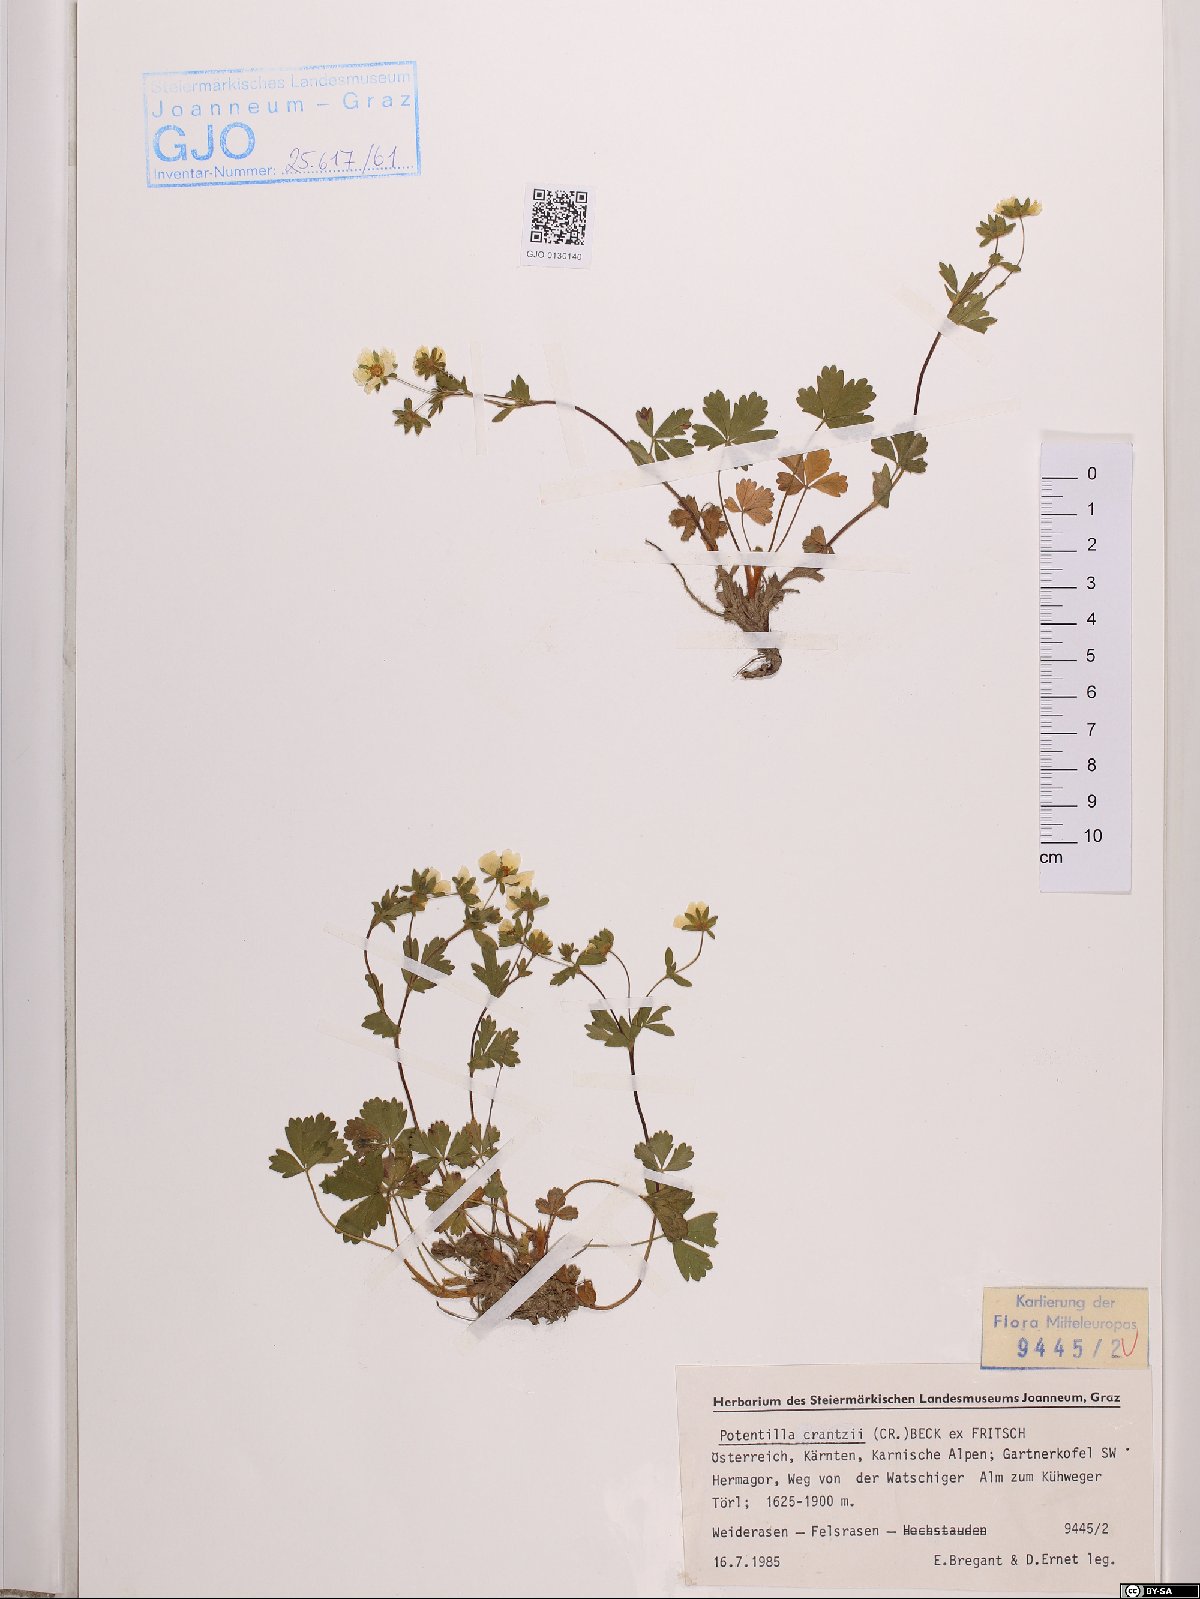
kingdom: Plantae
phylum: Tracheophyta
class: Magnoliopsida
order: Rosales
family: Rosaceae
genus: Potentilla
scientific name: Potentilla crantzii
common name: Alpine cinquefoil
